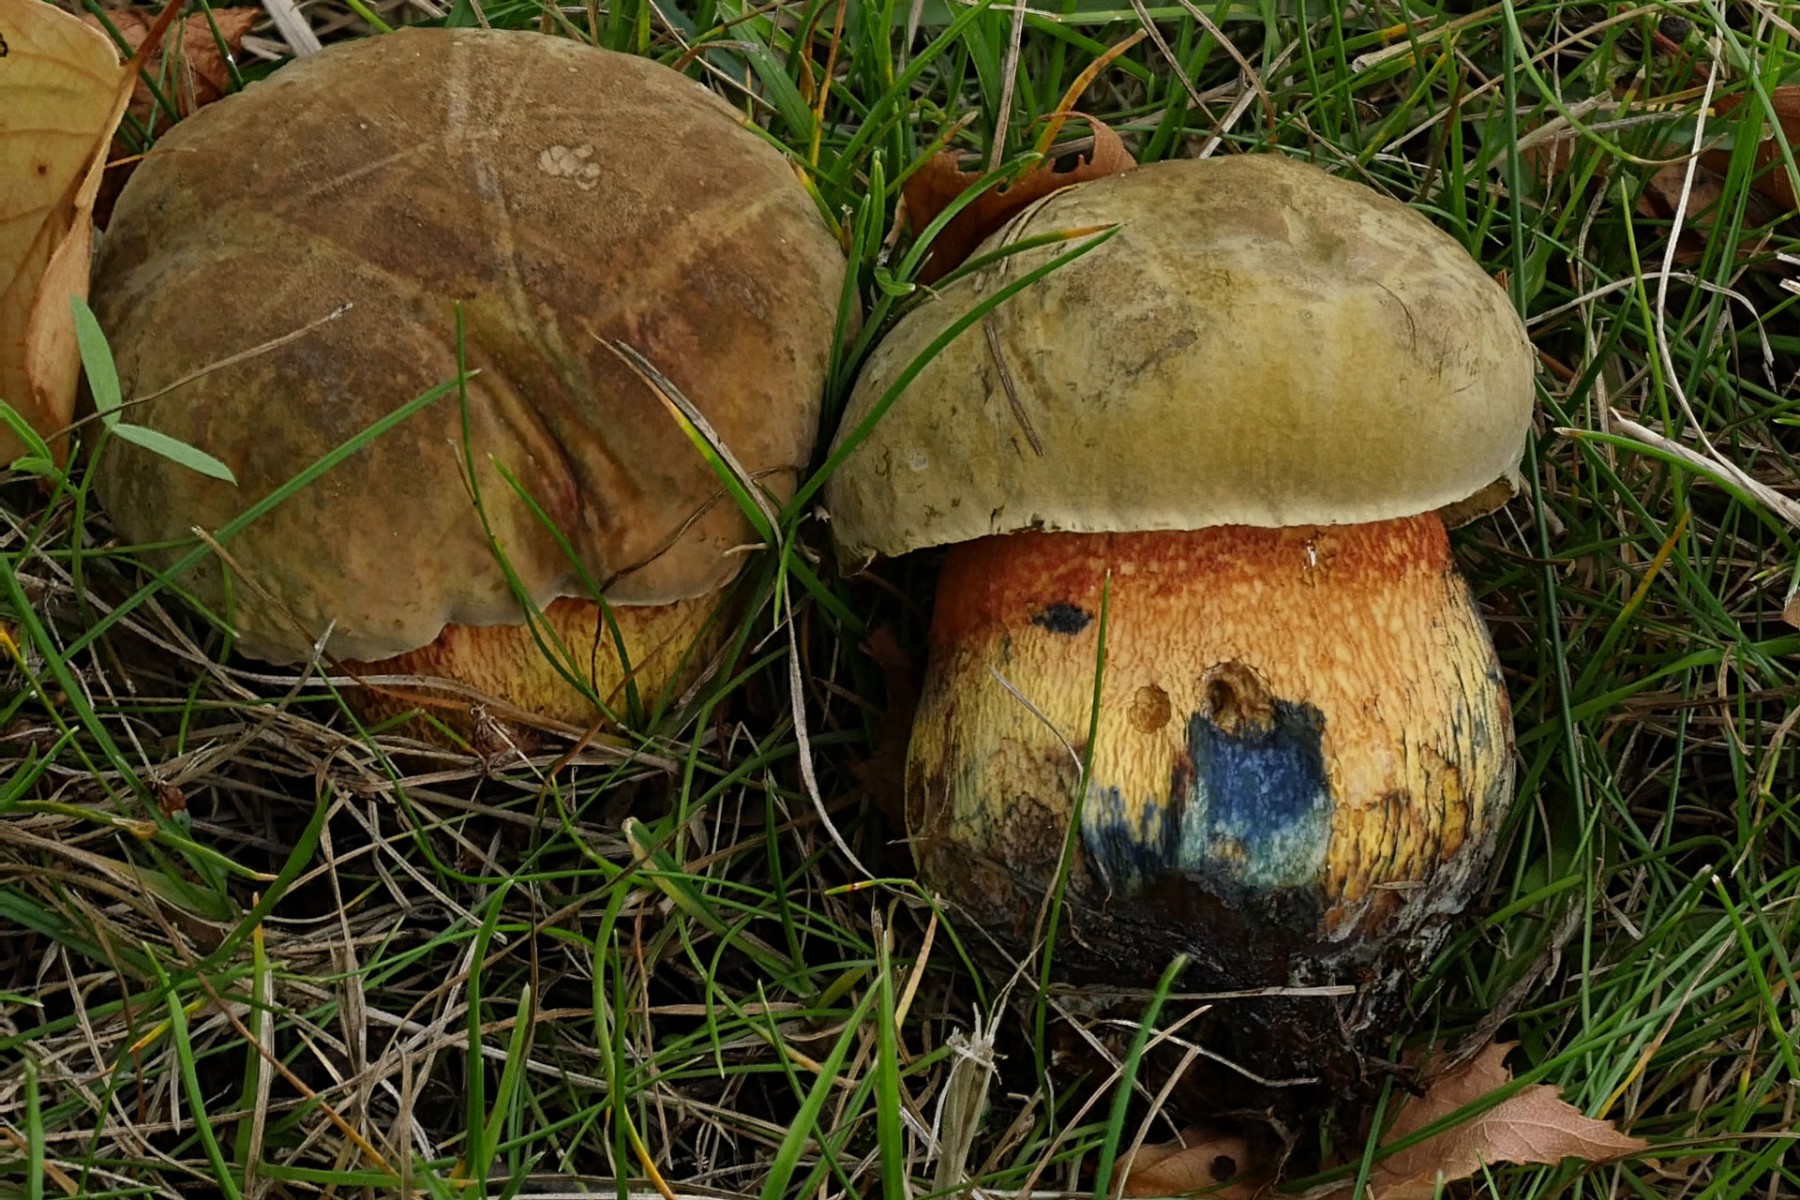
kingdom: Fungi
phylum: Basidiomycota
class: Agaricomycetes
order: Boletales
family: Boletaceae
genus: Suillellus
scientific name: Suillellus luridus
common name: netstokket indigorørhat
